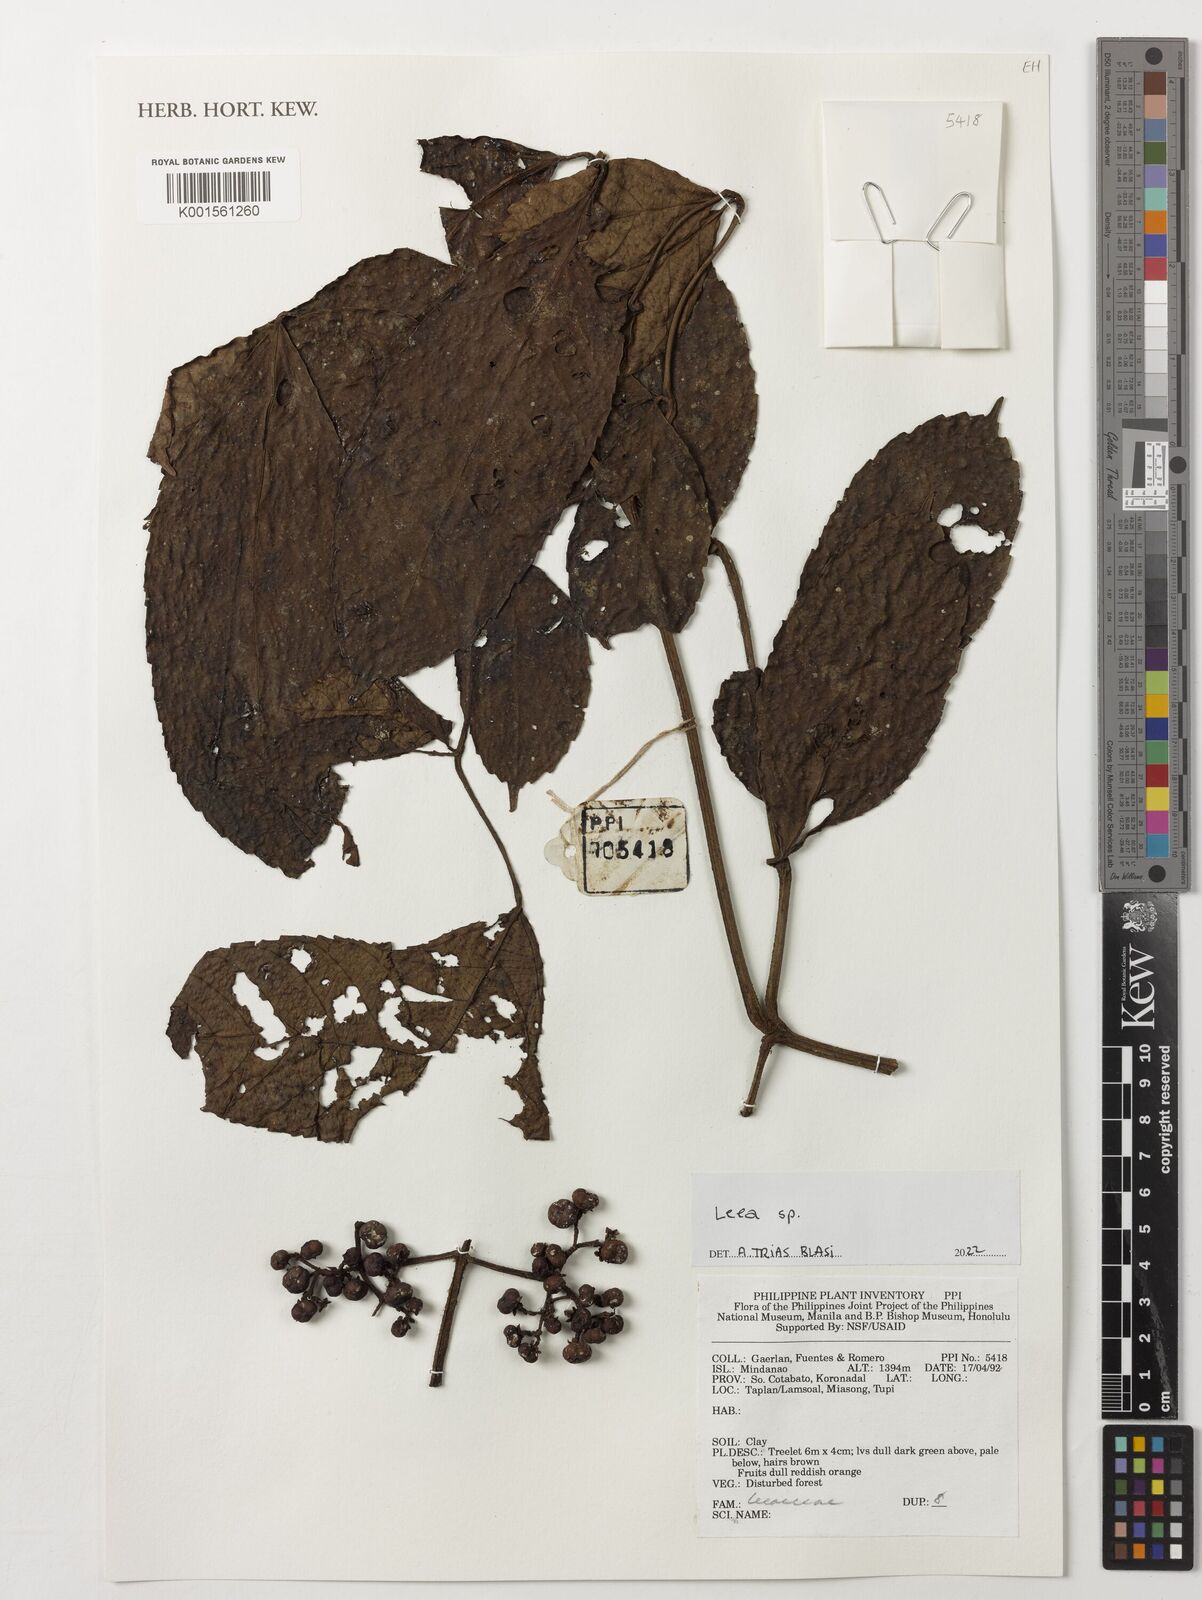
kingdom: Plantae
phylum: Tracheophyta
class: Magnoliopsida
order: Vitales
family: Vitaceae
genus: Leea
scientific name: Leea
